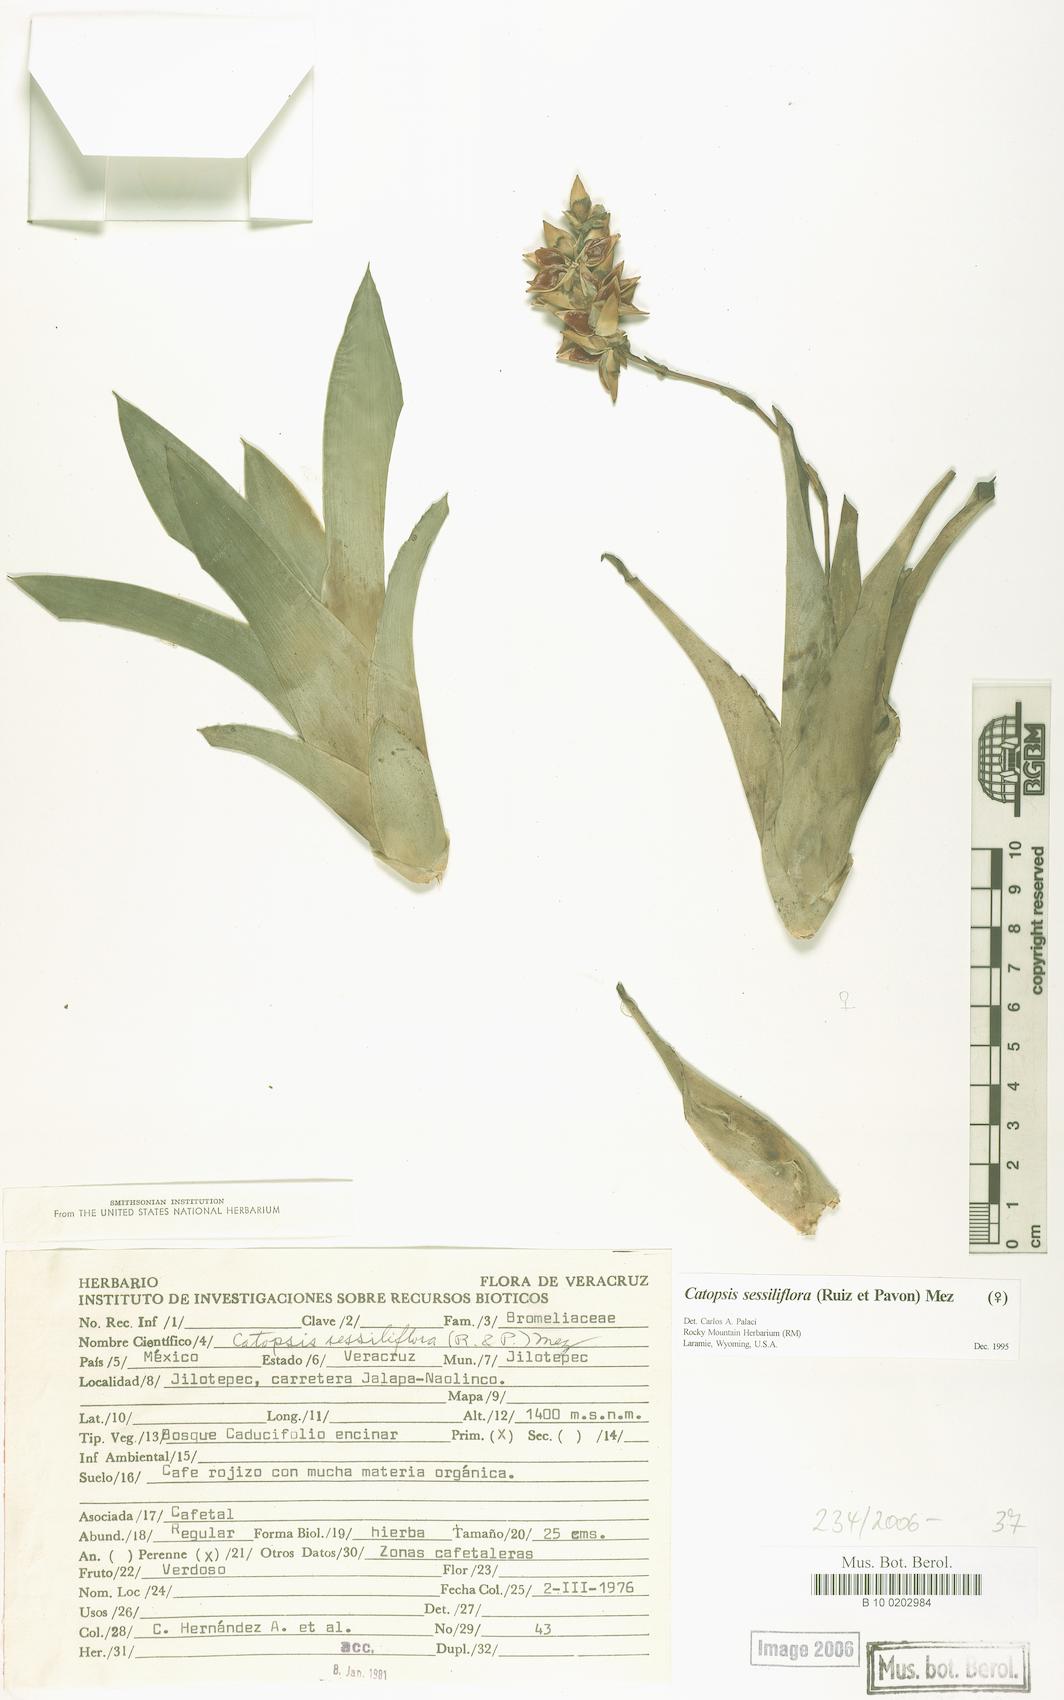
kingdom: Plantae
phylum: Tracheophyta
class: Liliopsida
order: Poales
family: Bromeliaceae
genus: Catopsis
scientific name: Catopsis sessiliflora
